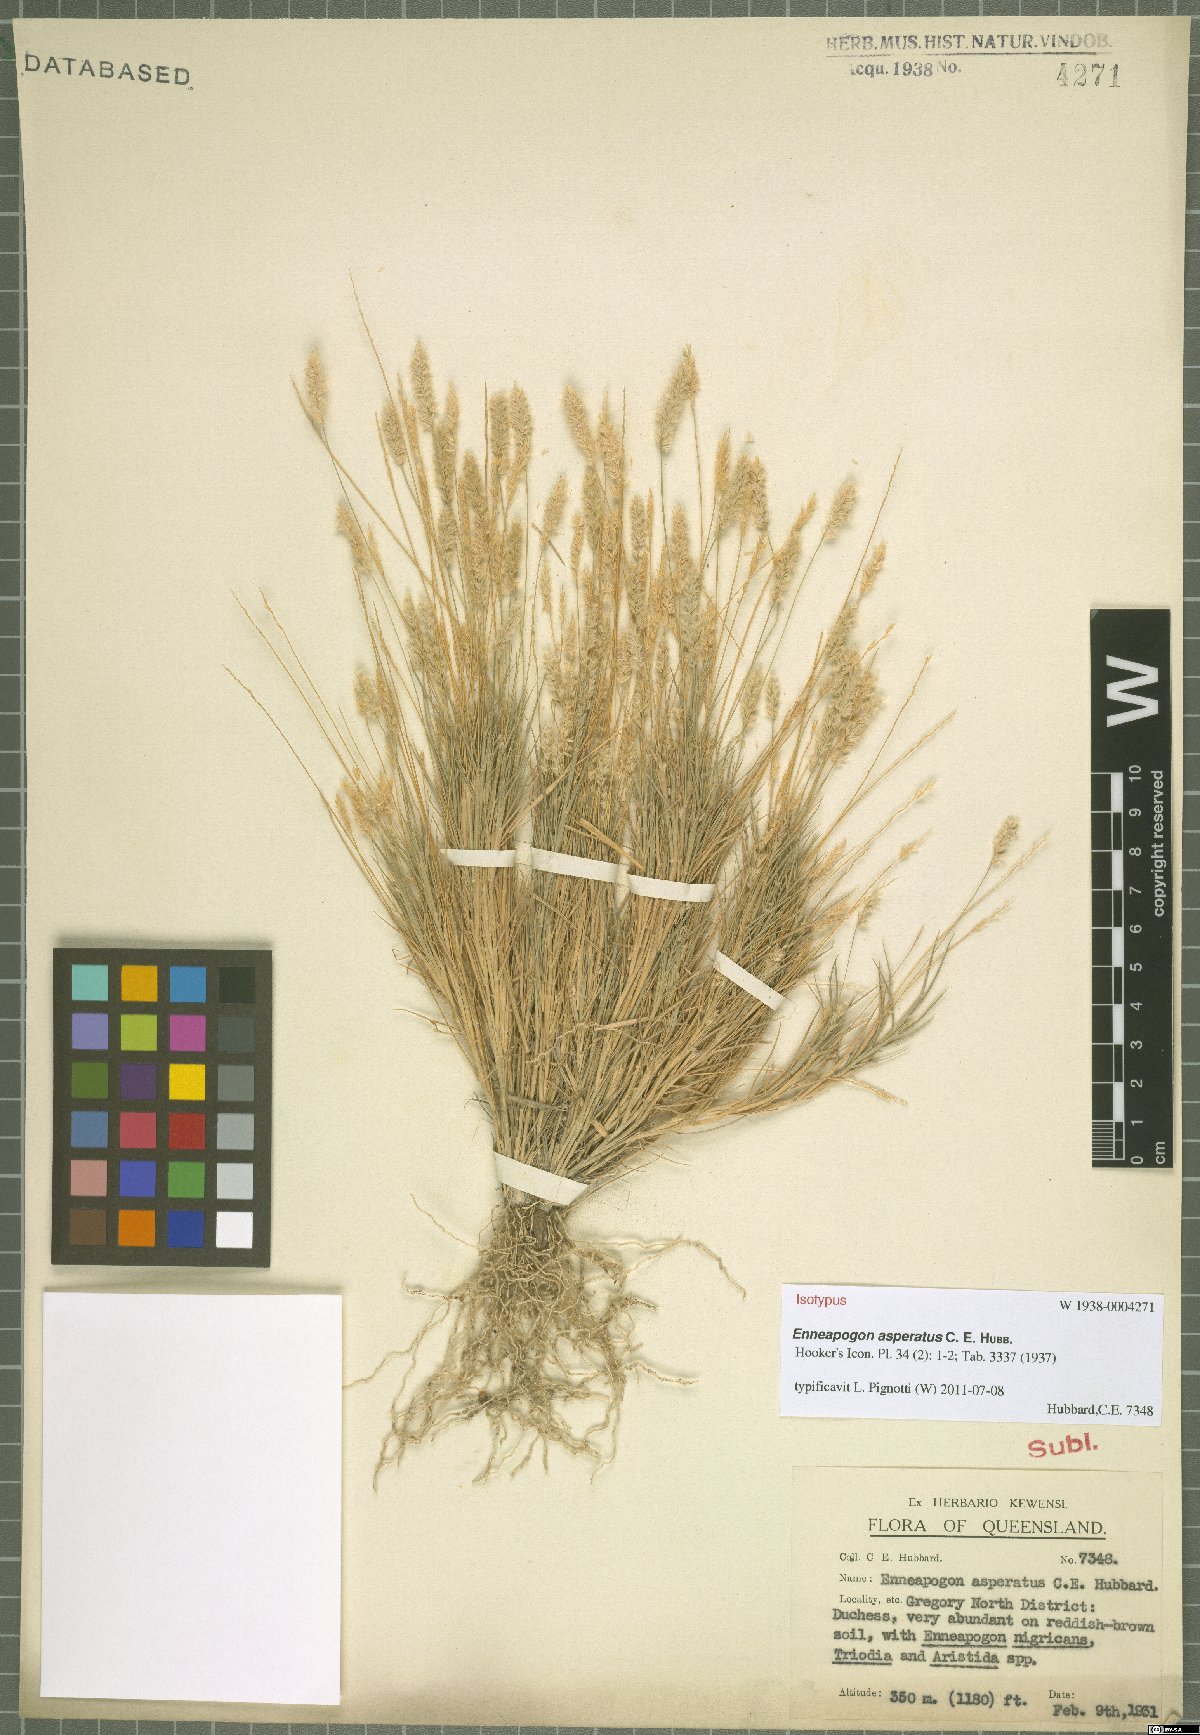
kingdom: Plantae
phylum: Tracheophyta
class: Liliopsida
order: Poales
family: Poaceae
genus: Enneapogon
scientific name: Enneapogon asperatus
